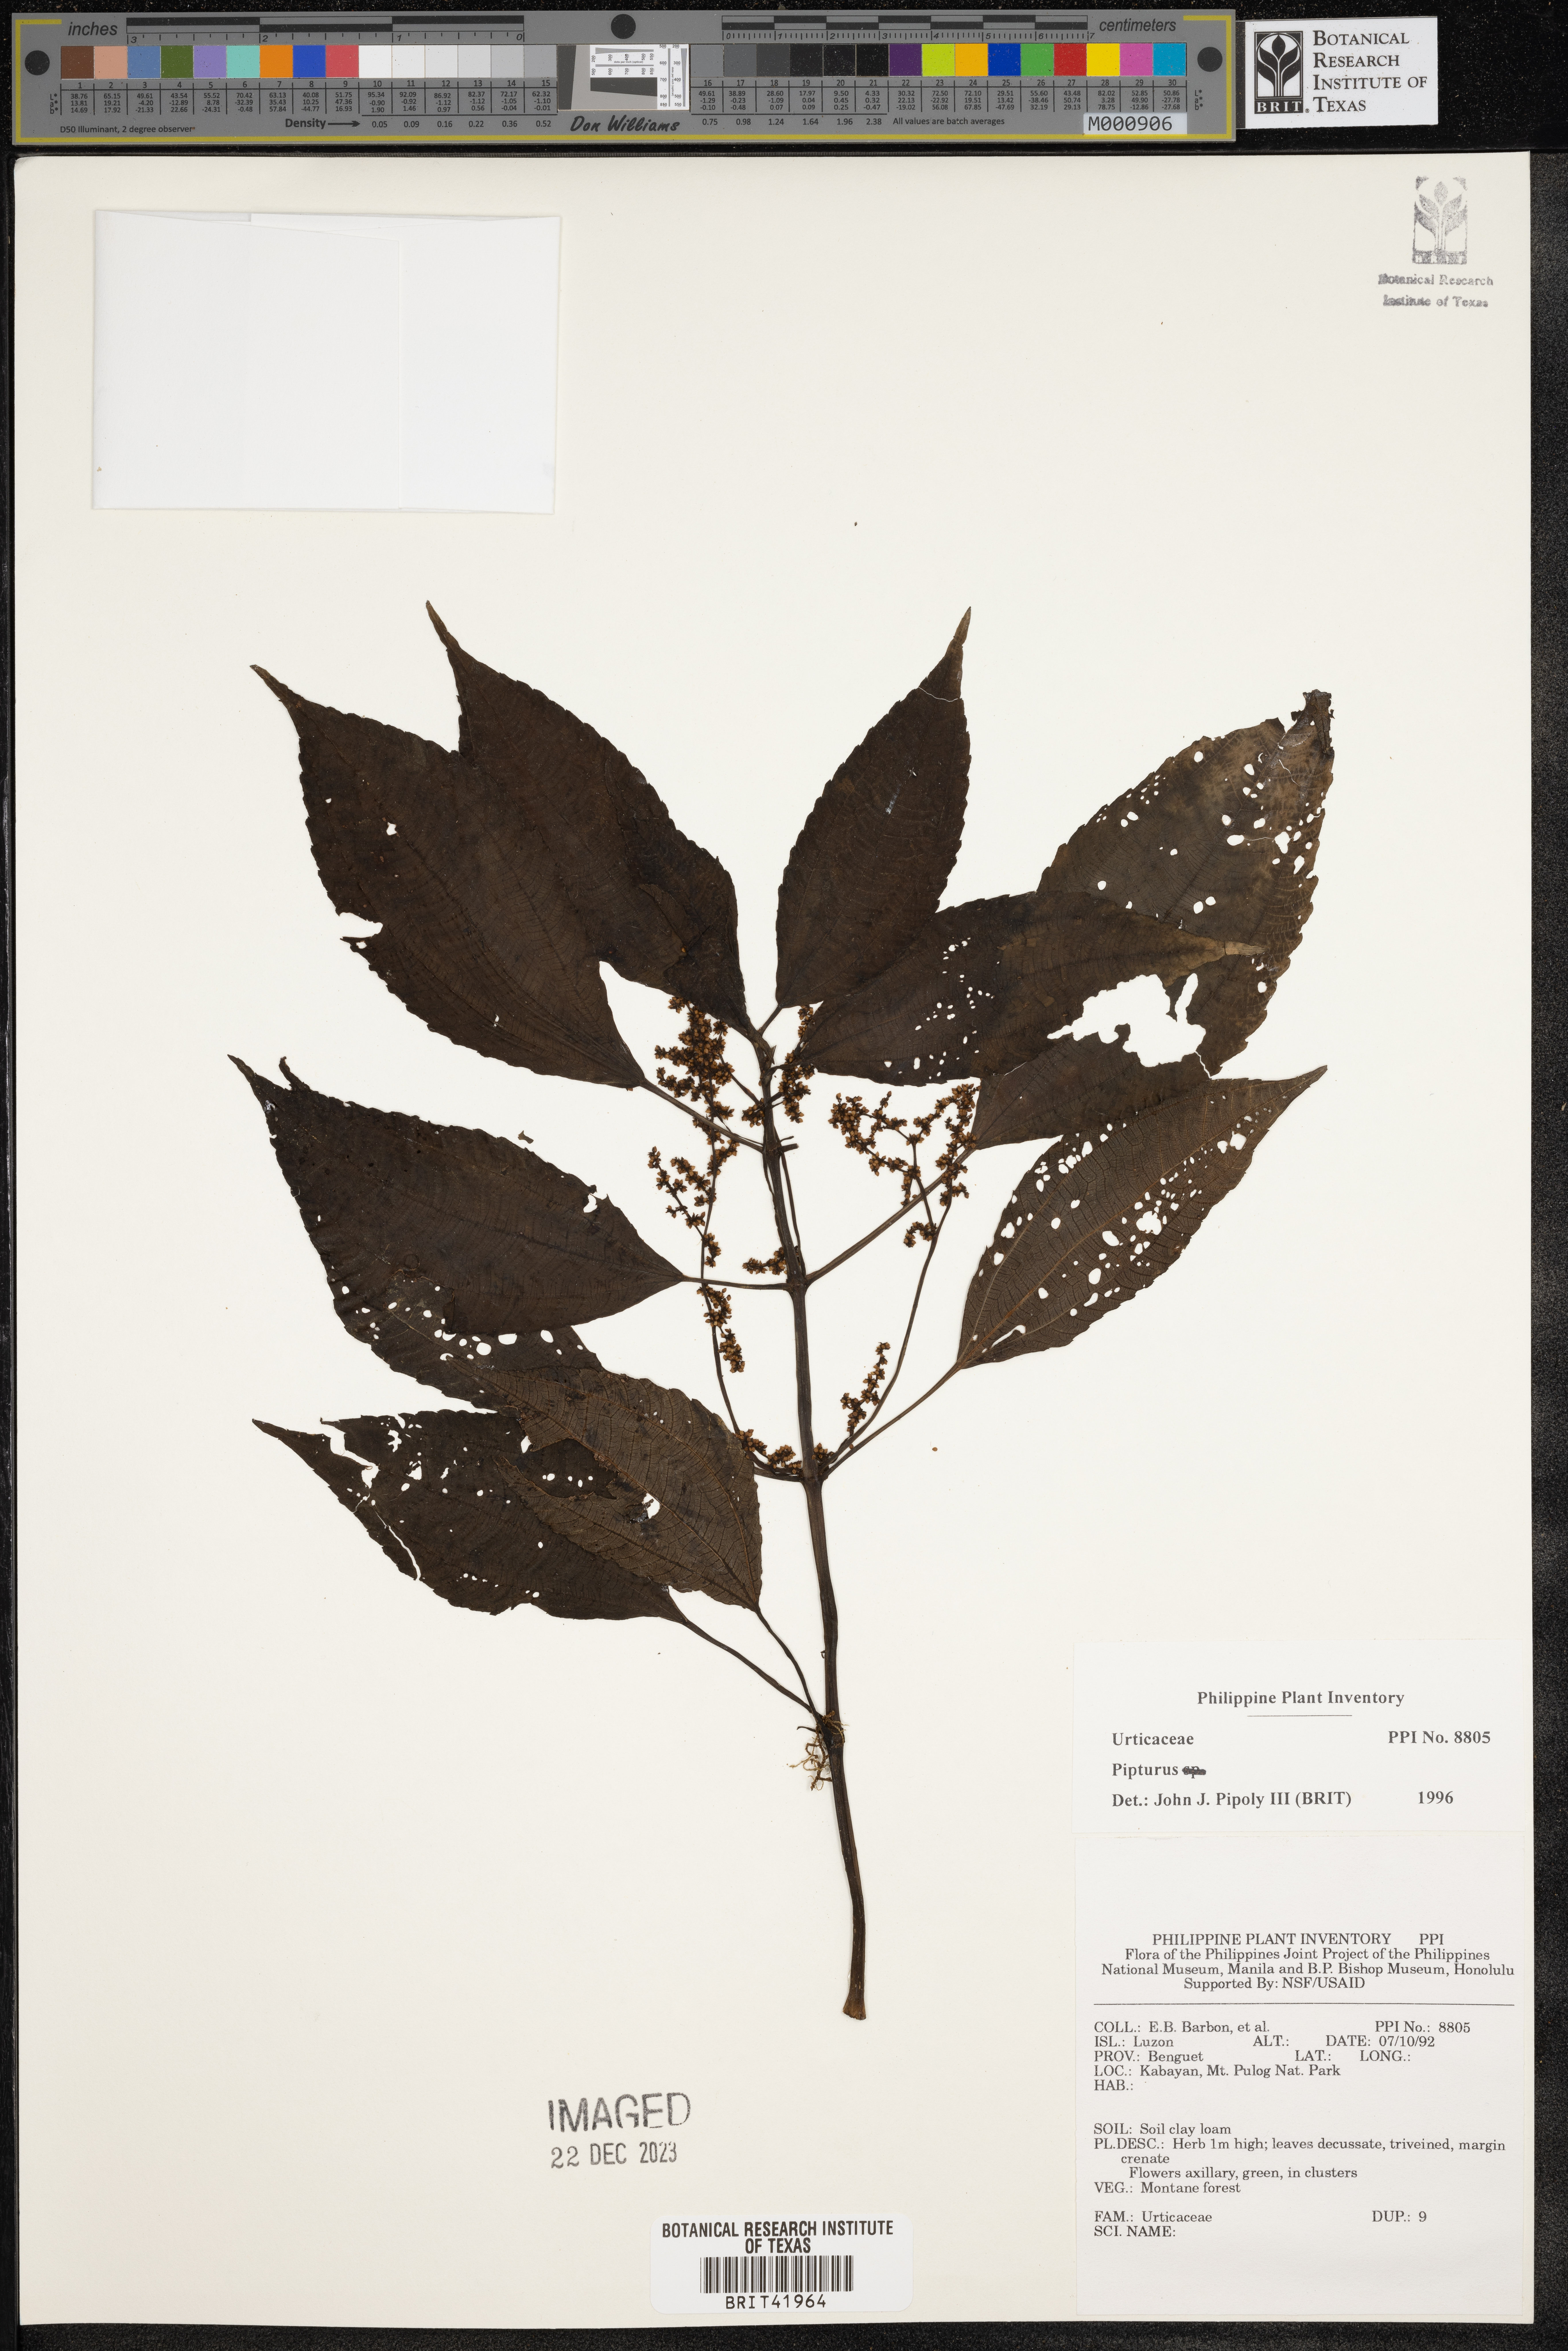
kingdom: Plantae
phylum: Tracheophyta
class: Magnoliopsida
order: Rosales
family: Urticaceae
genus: Pipturus
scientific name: Pipturus
